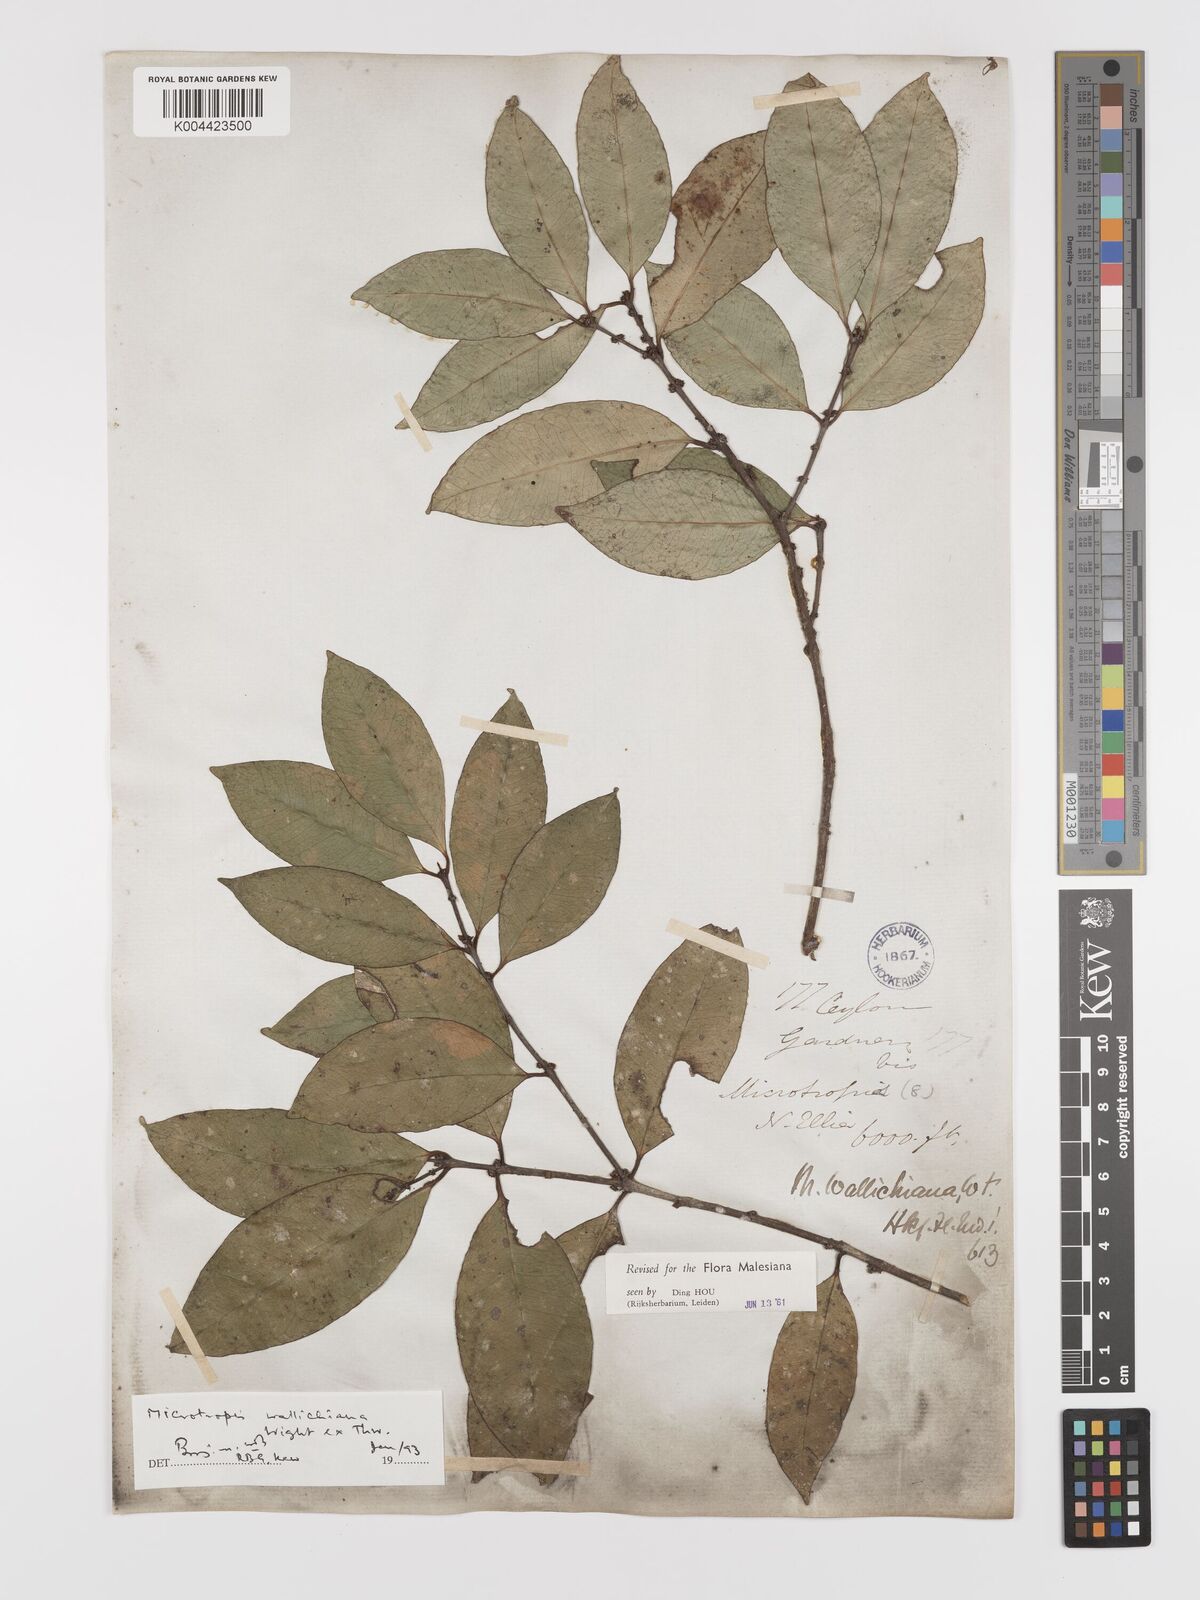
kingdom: Plantae
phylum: Tracheophyta
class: Magnoliopsida
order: Celastrales
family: Celastraceae
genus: Microtropis
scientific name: Microtropis wallichiana
